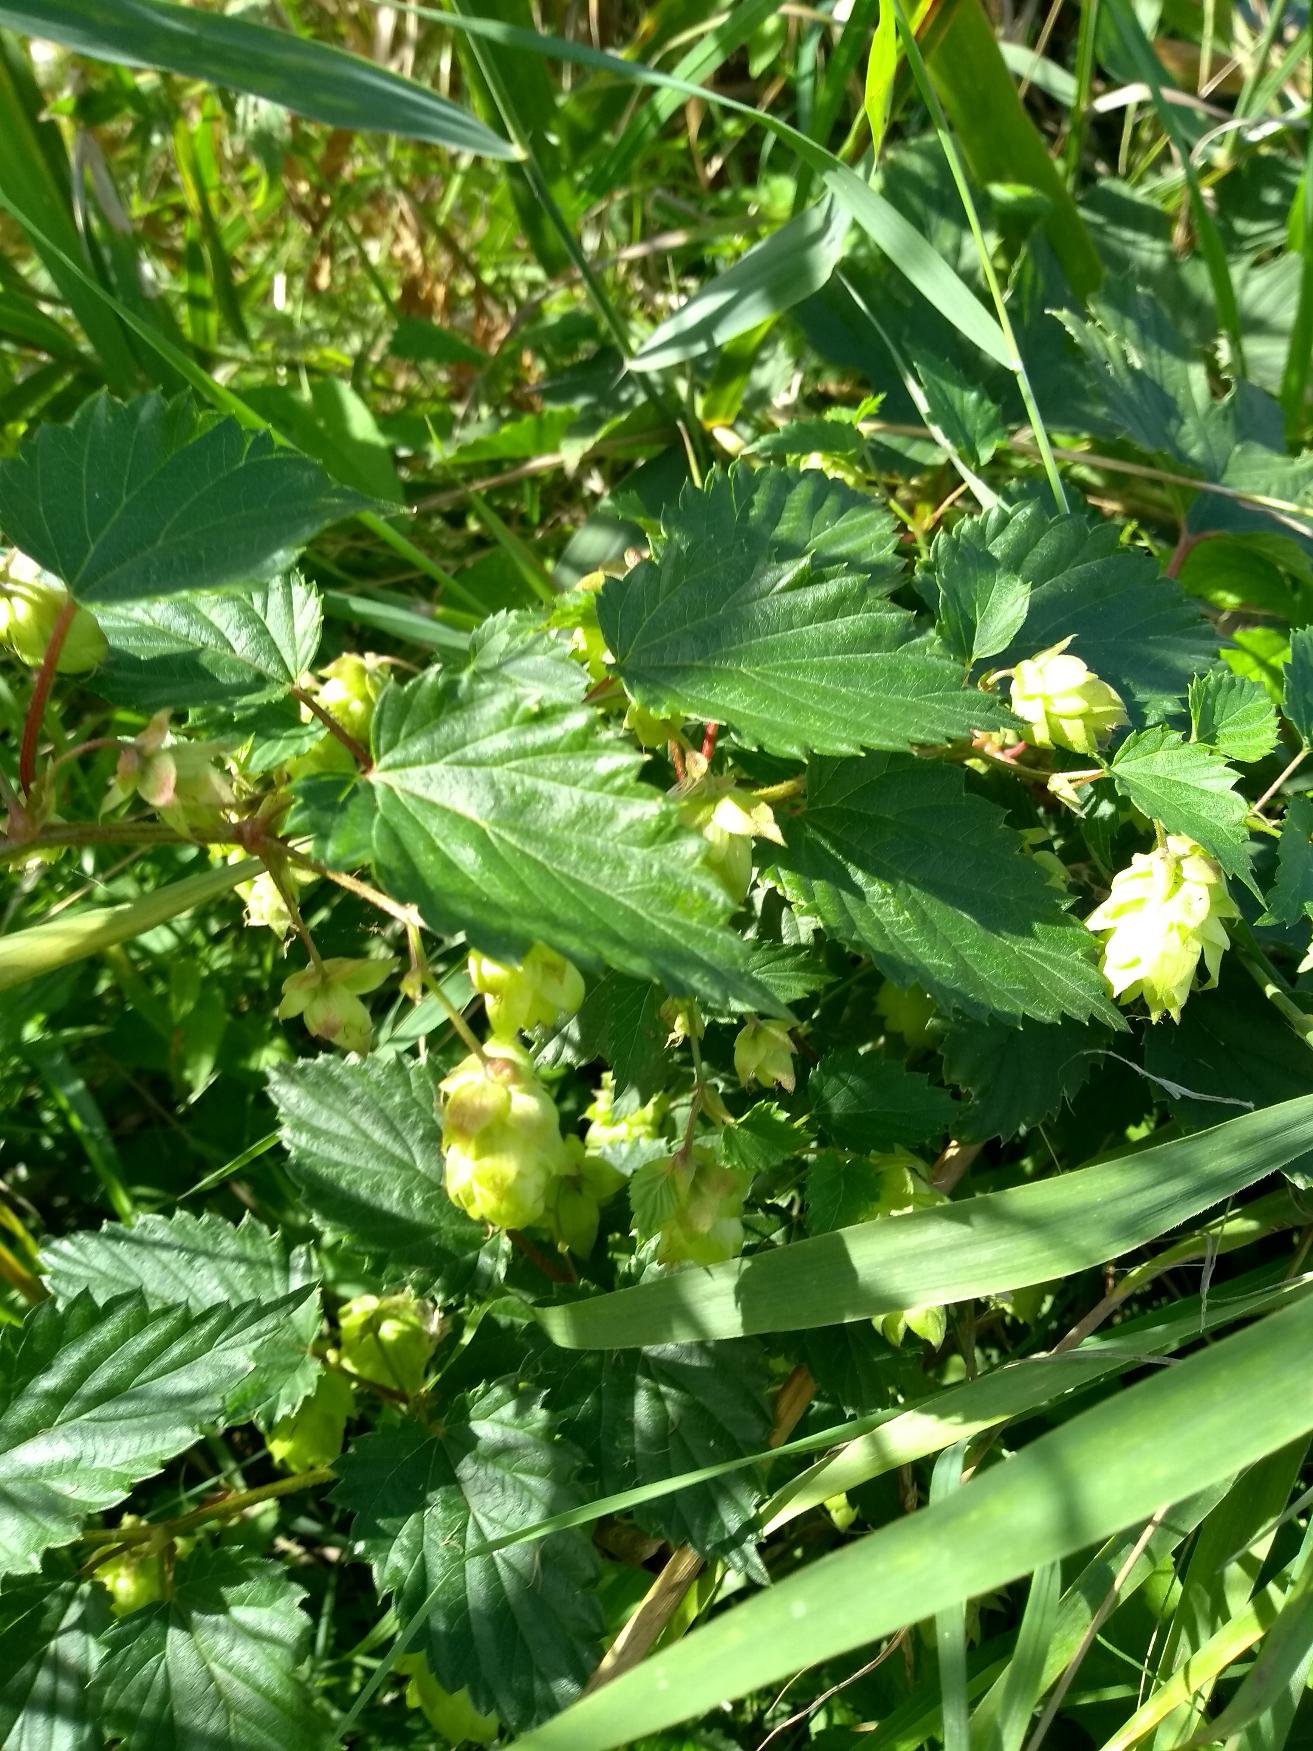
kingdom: Plantae
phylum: Tracheophyta
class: Magnoliopsida
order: Rosales
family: Cannabaceae
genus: Humulus
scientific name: Humulus lupulus
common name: Humle
